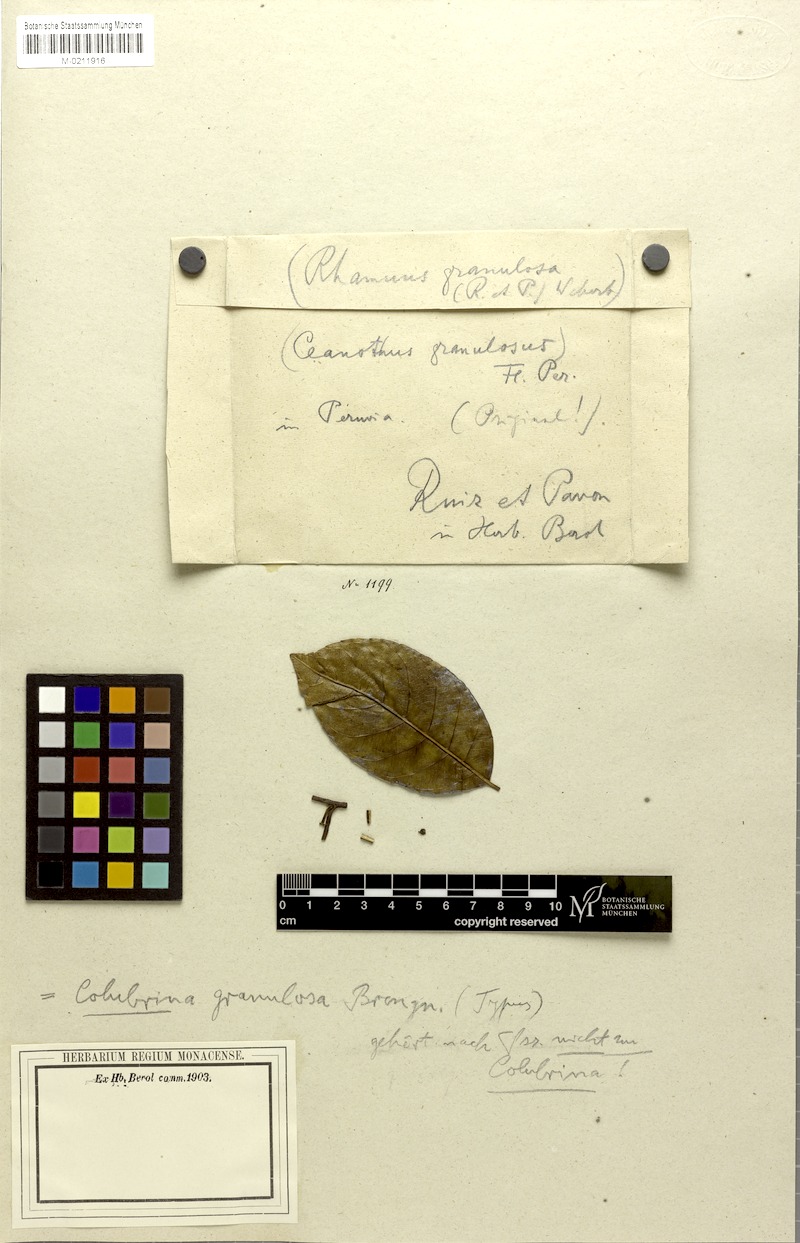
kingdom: Plantae
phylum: Tracheophyta
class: Magnoliopsida
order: Rosales
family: Rhamnaceae
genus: Frangula
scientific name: Frangula granulosa
